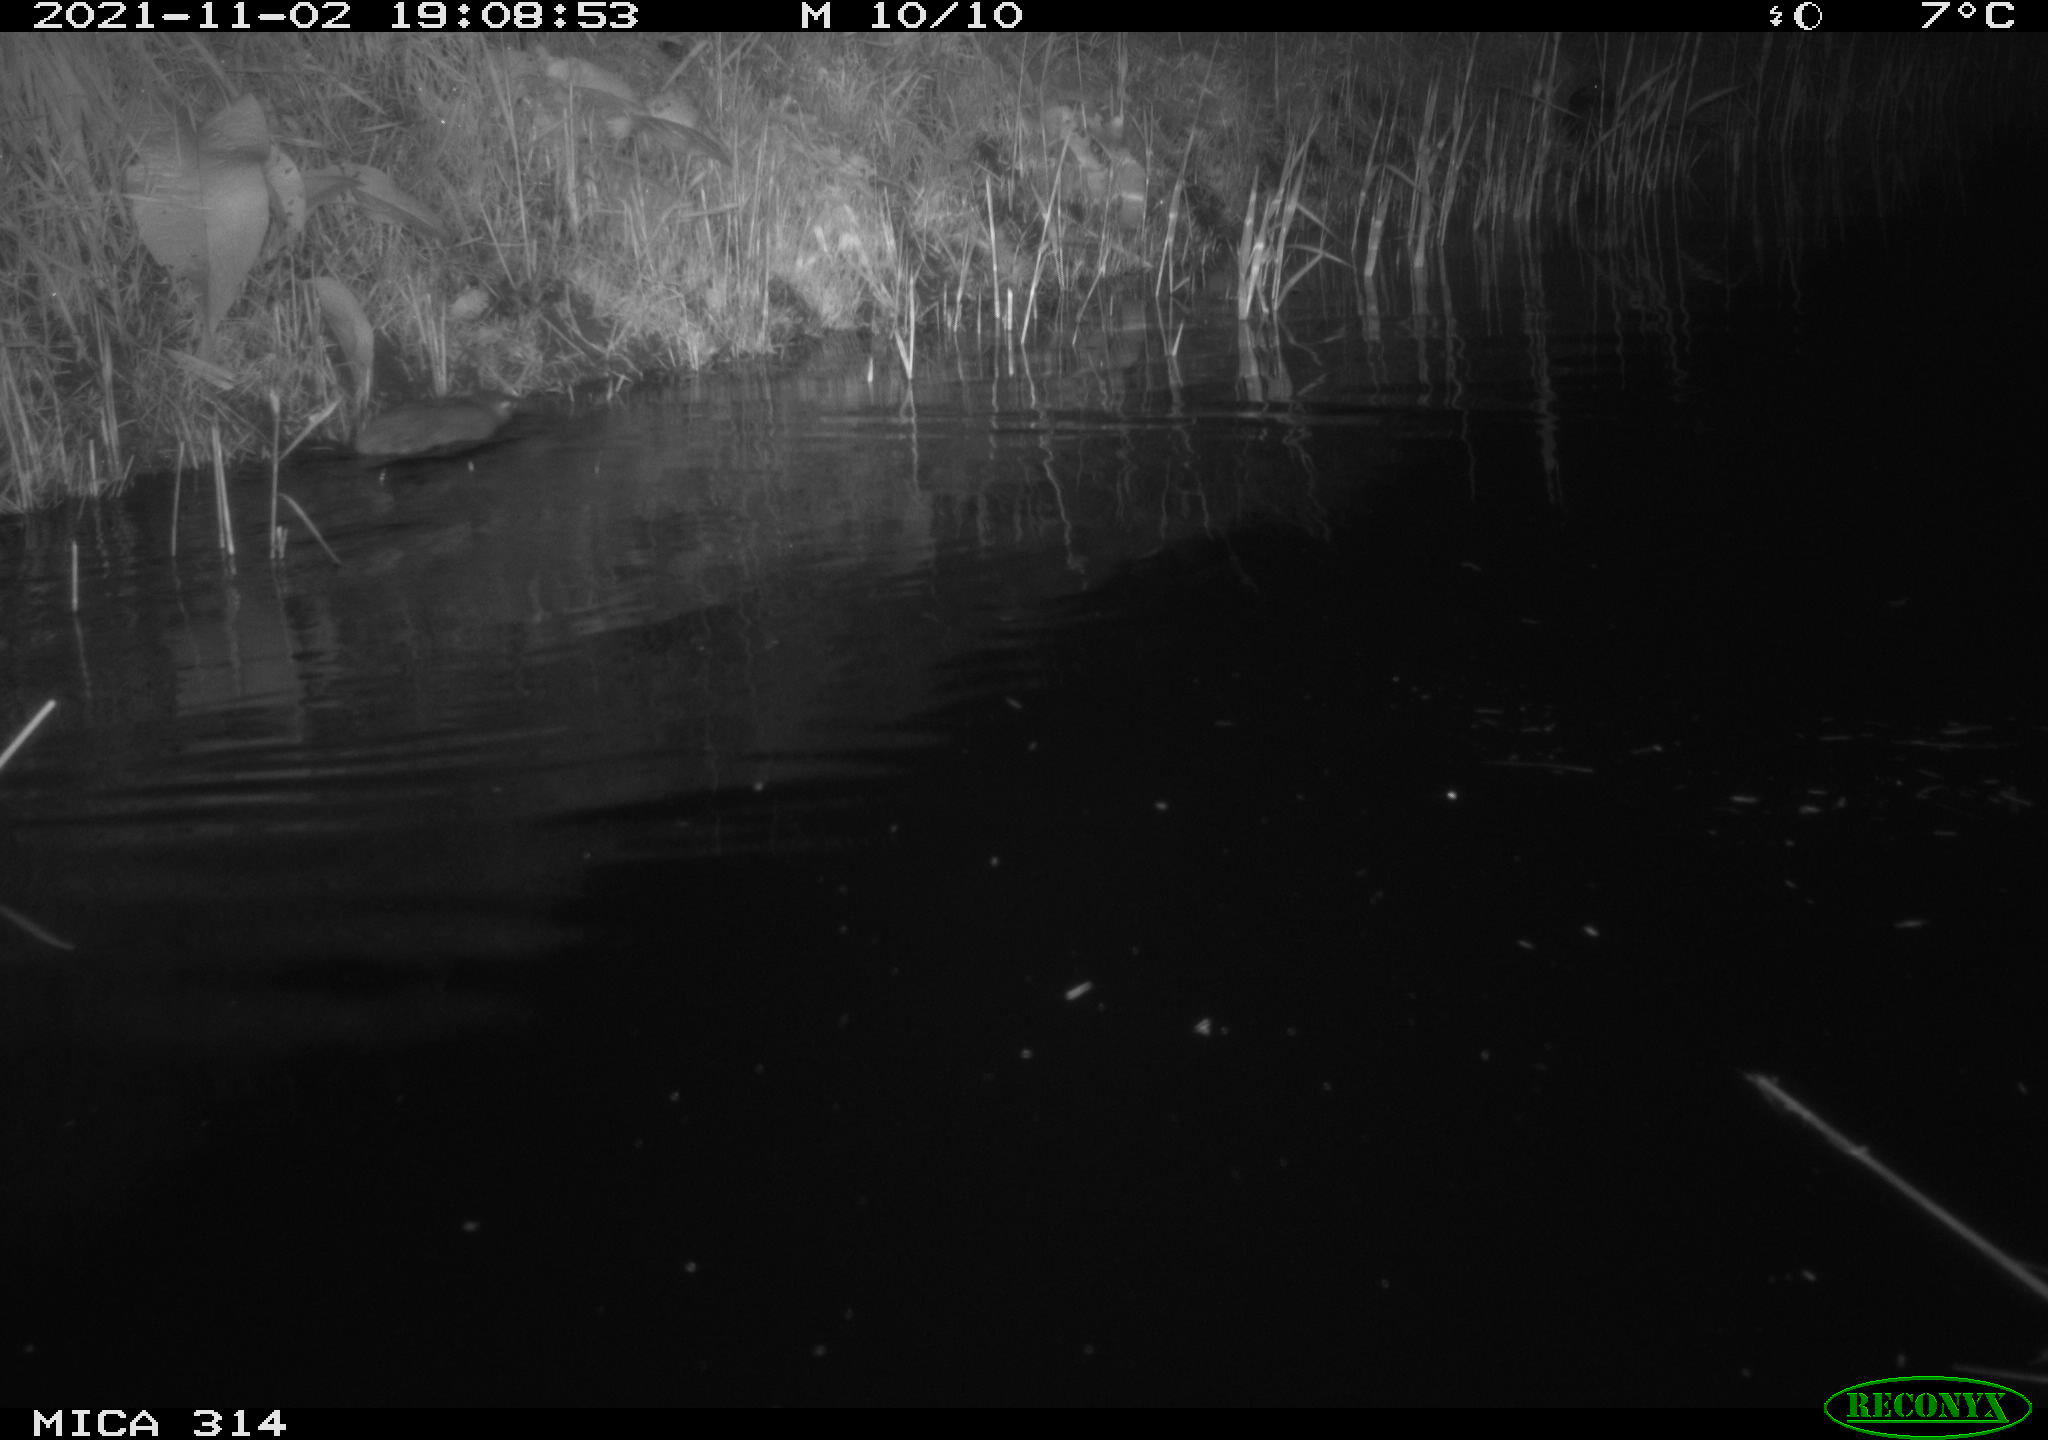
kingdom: Animalia
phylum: Chordata
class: Mammalia
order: Rodentia
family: Muridae
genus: Rattus
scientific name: Rattus norvegicus
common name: Brown rat
